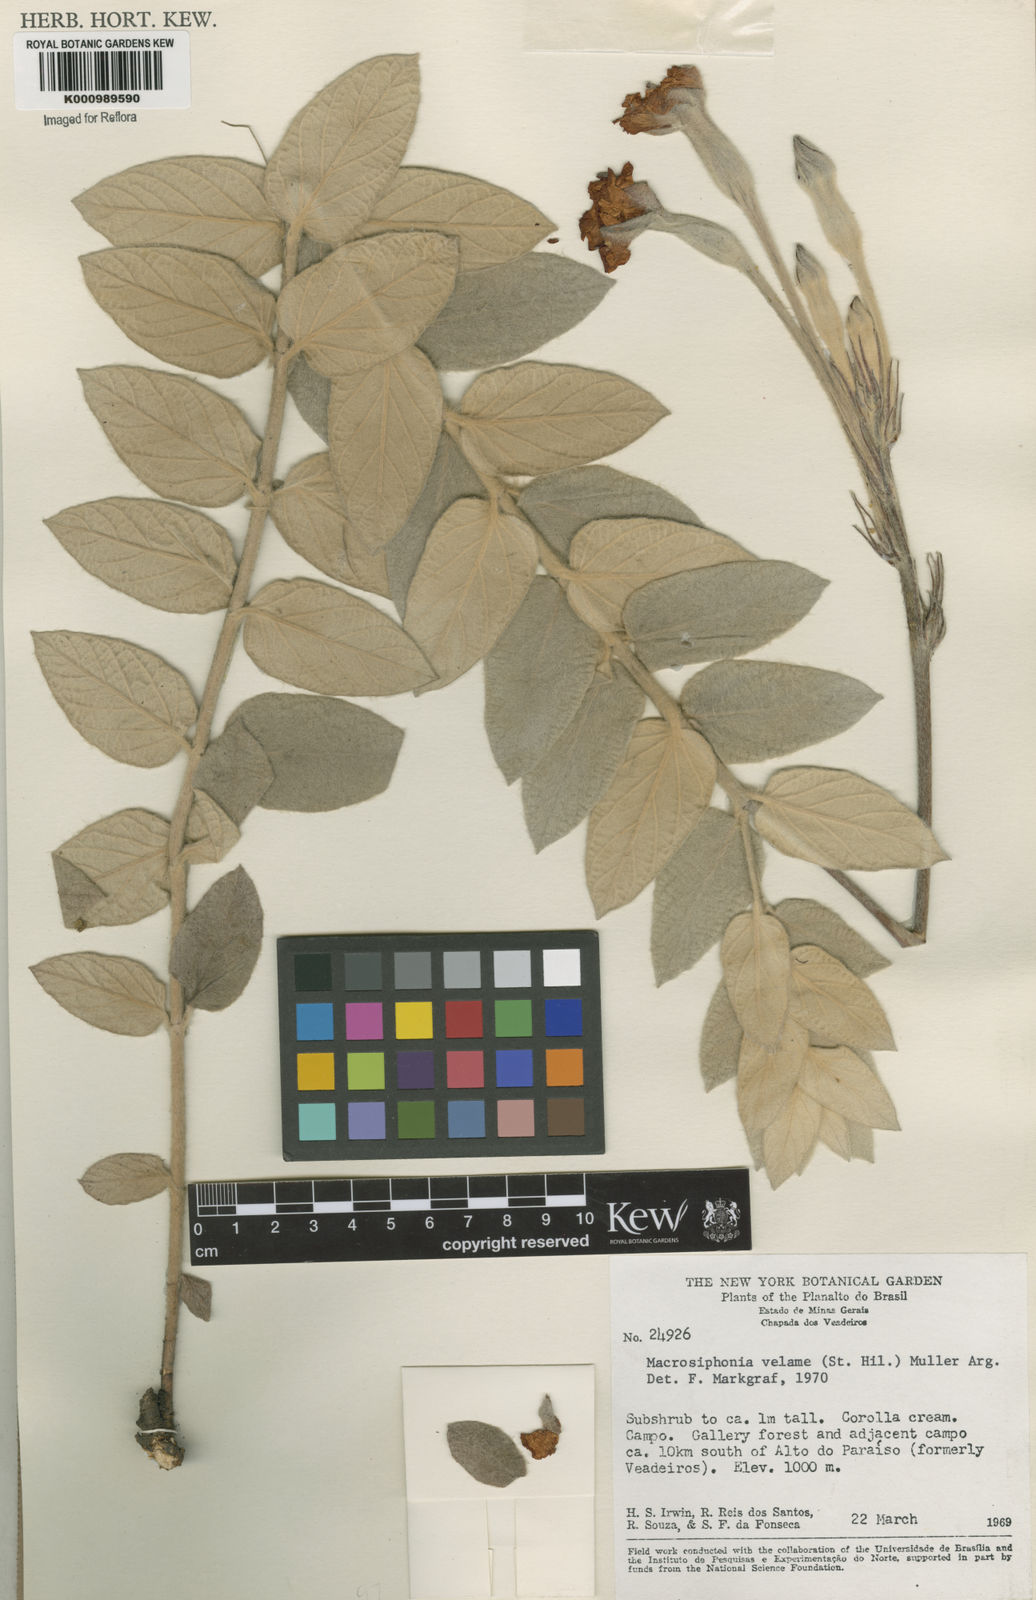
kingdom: Plantae
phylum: Tracheophyta
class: Magnoliopsida
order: Gentianales
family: Apocynaceae
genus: Mandevilla
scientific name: Mandevilla velame
